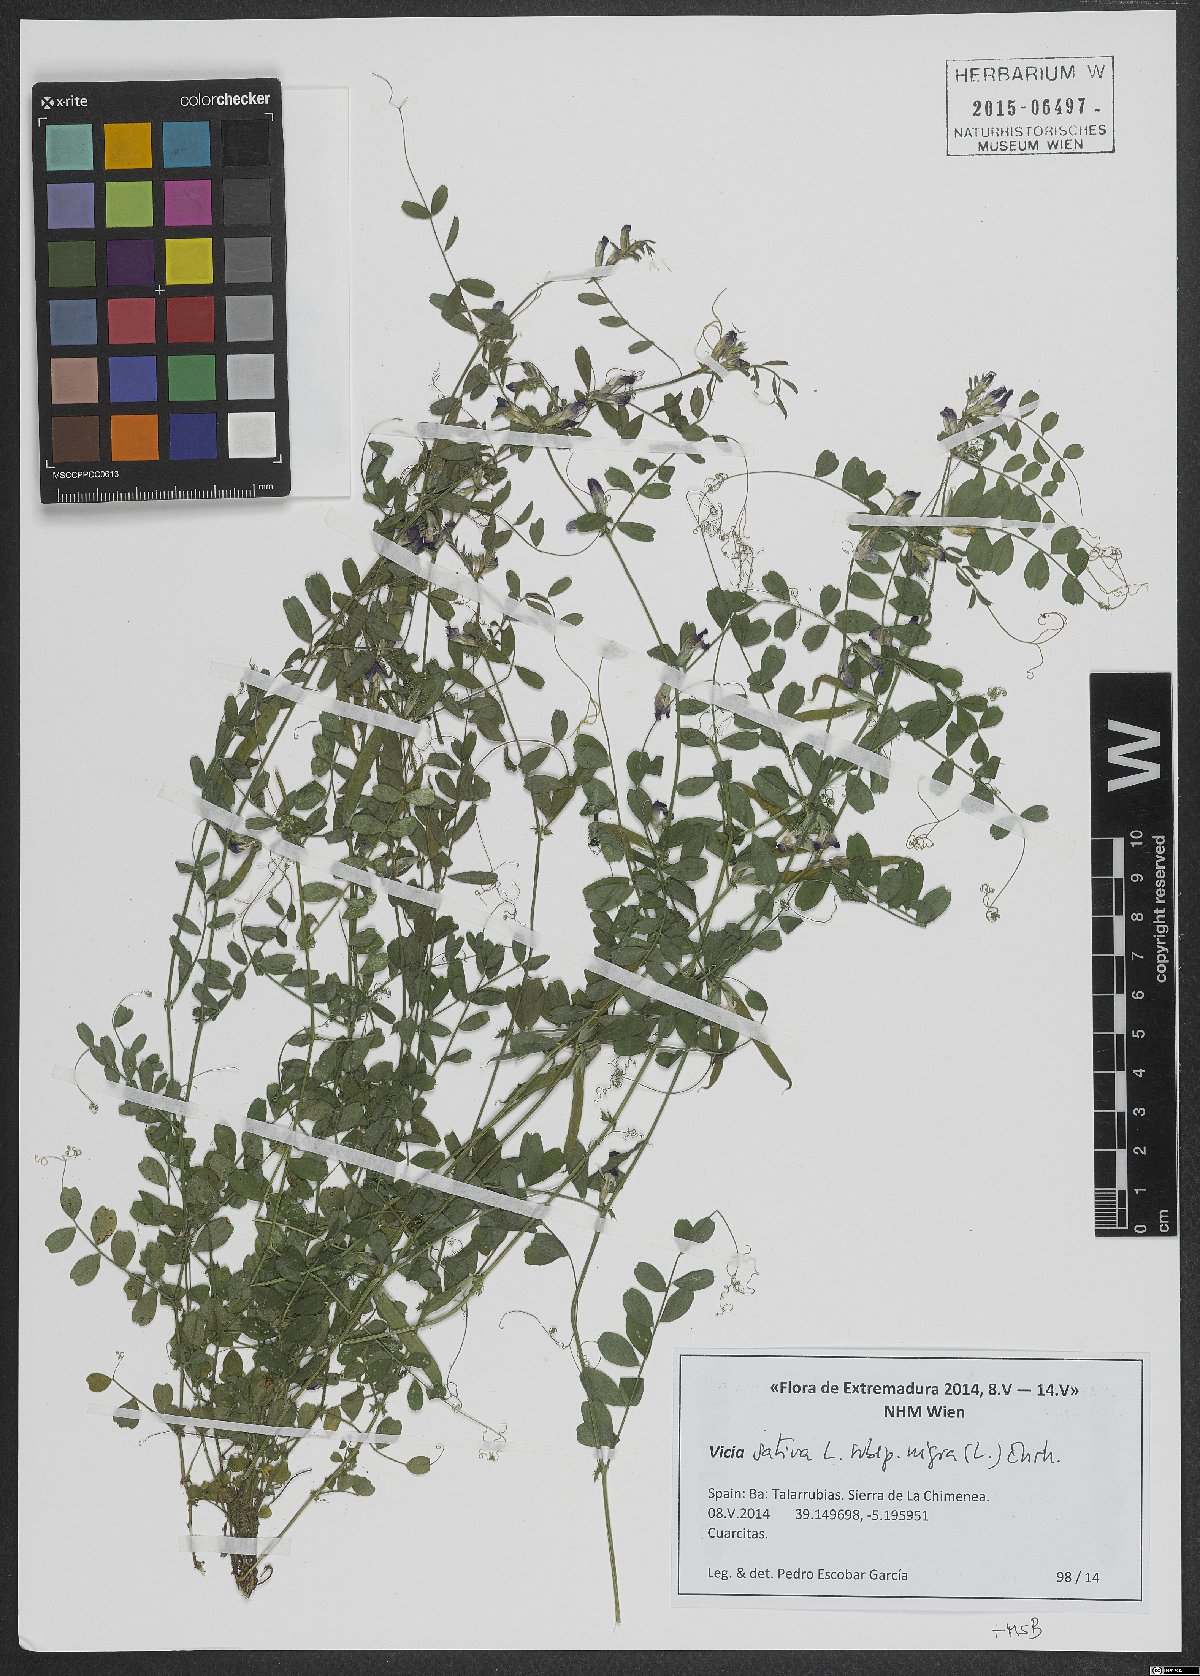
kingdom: Plantae
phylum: Tracheophyta
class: Magnoliopsida
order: Fabales
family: Fabaceae
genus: Vicia
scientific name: Vicia sativa
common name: Garden vetch
